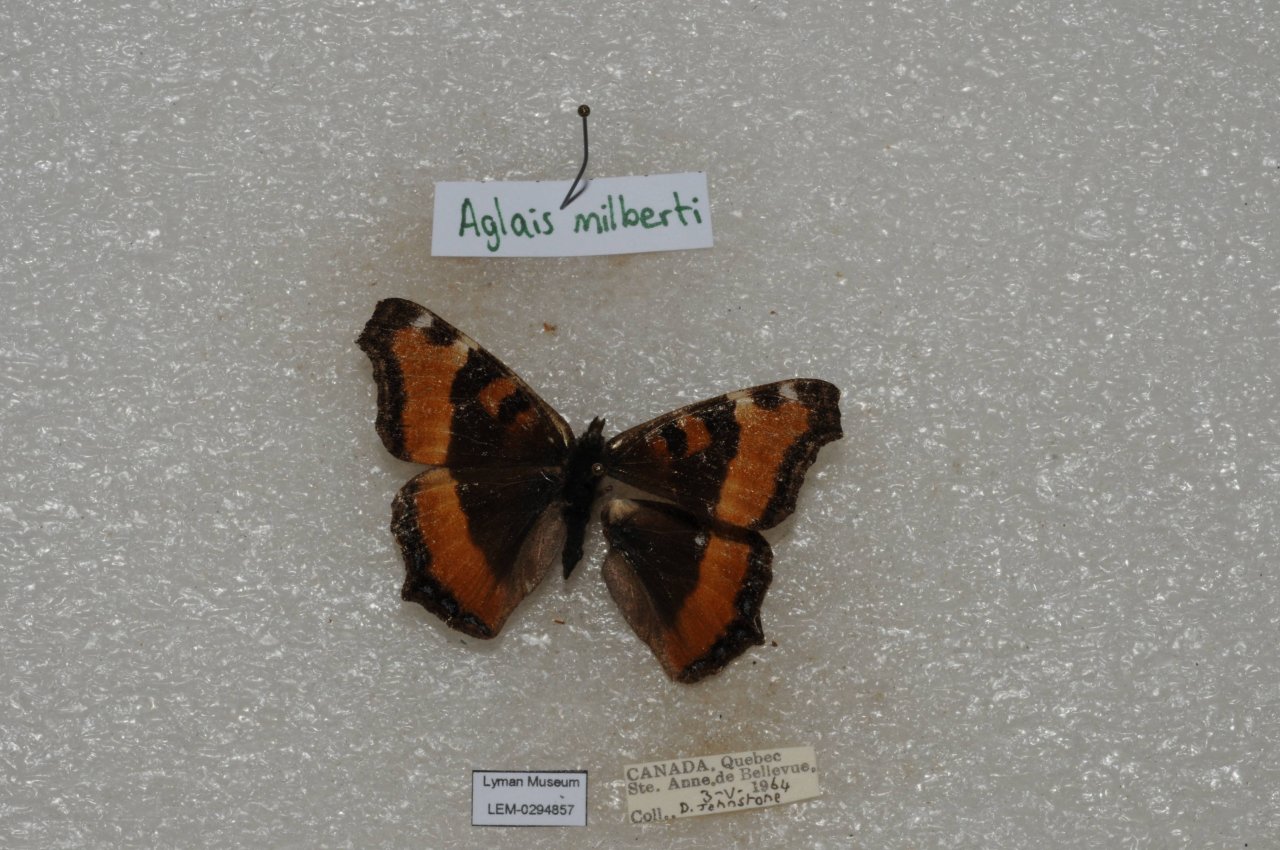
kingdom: Animalia
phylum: Arthropoda
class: Insecta
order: Lepidoptera
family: Nymphalidae
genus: Aglais
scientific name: Aglais milberti
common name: Milbert's Tortoiseshell
